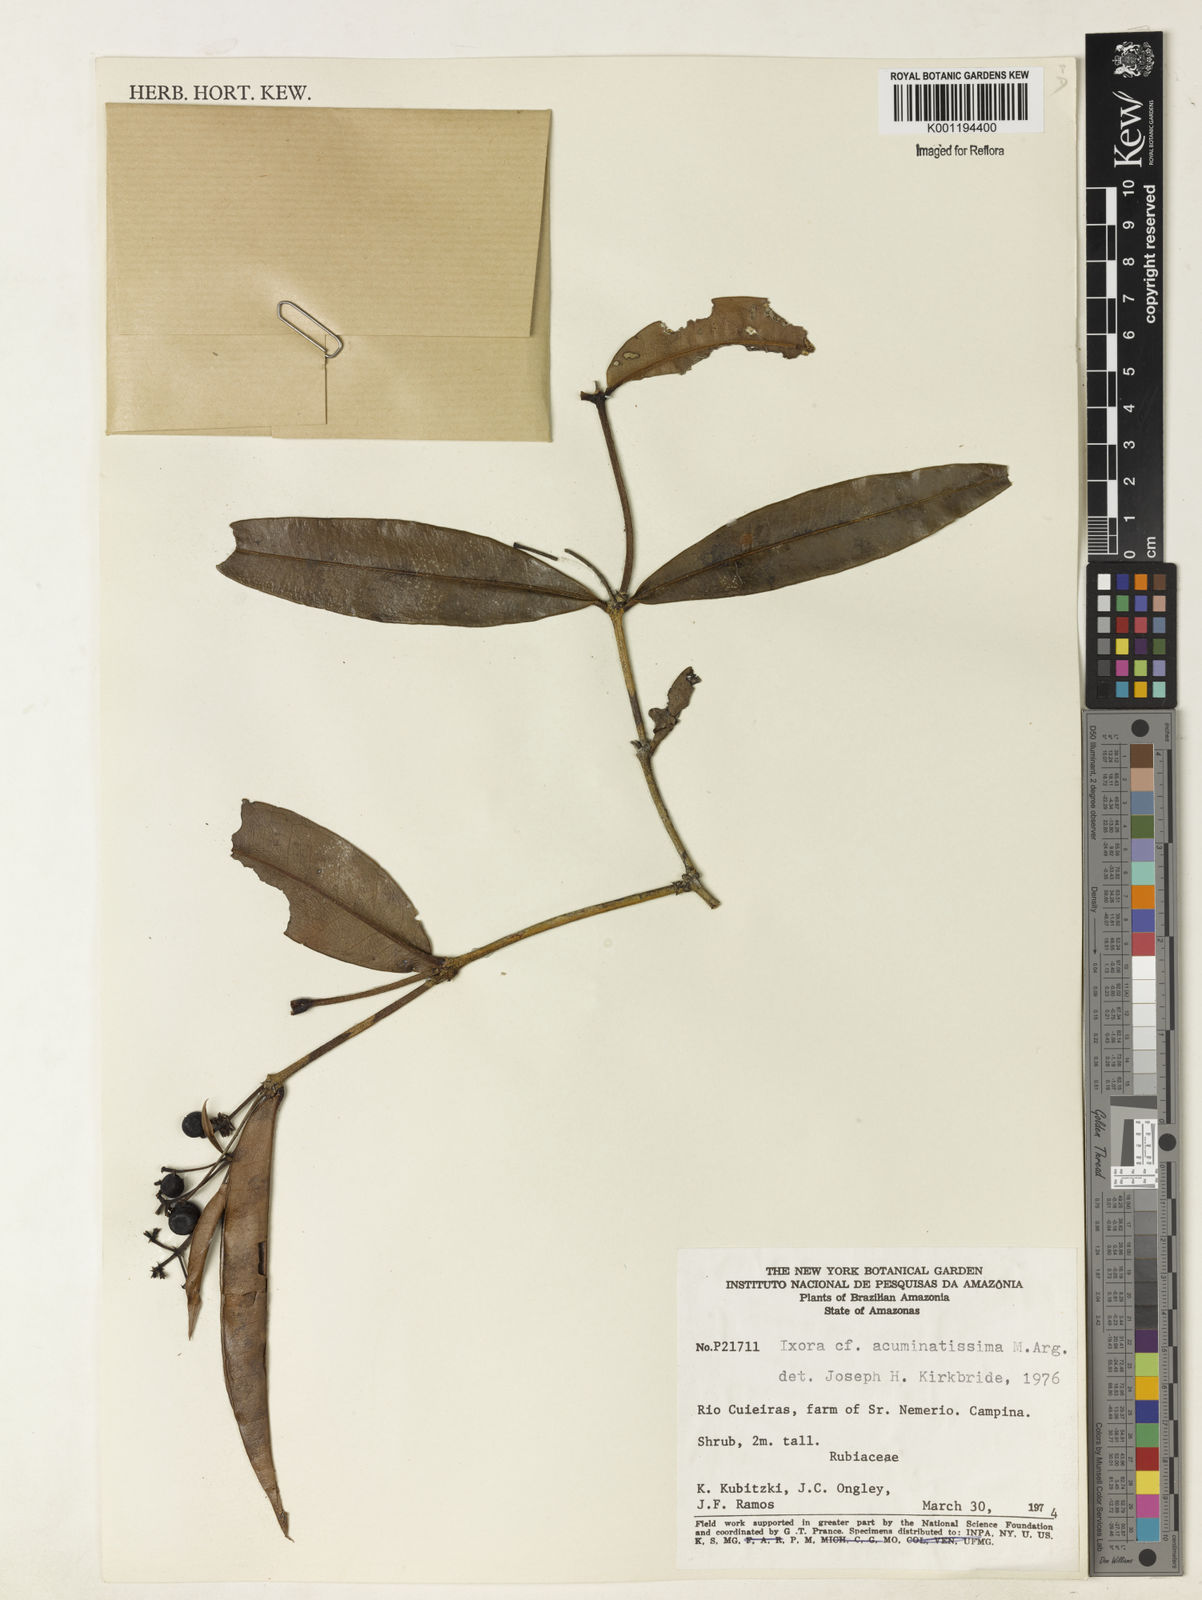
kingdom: Plantae
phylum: Tracheophyta
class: Magnoliopsida
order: Gentianales
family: Rubiaceae
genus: Ixora
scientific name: Ixora
